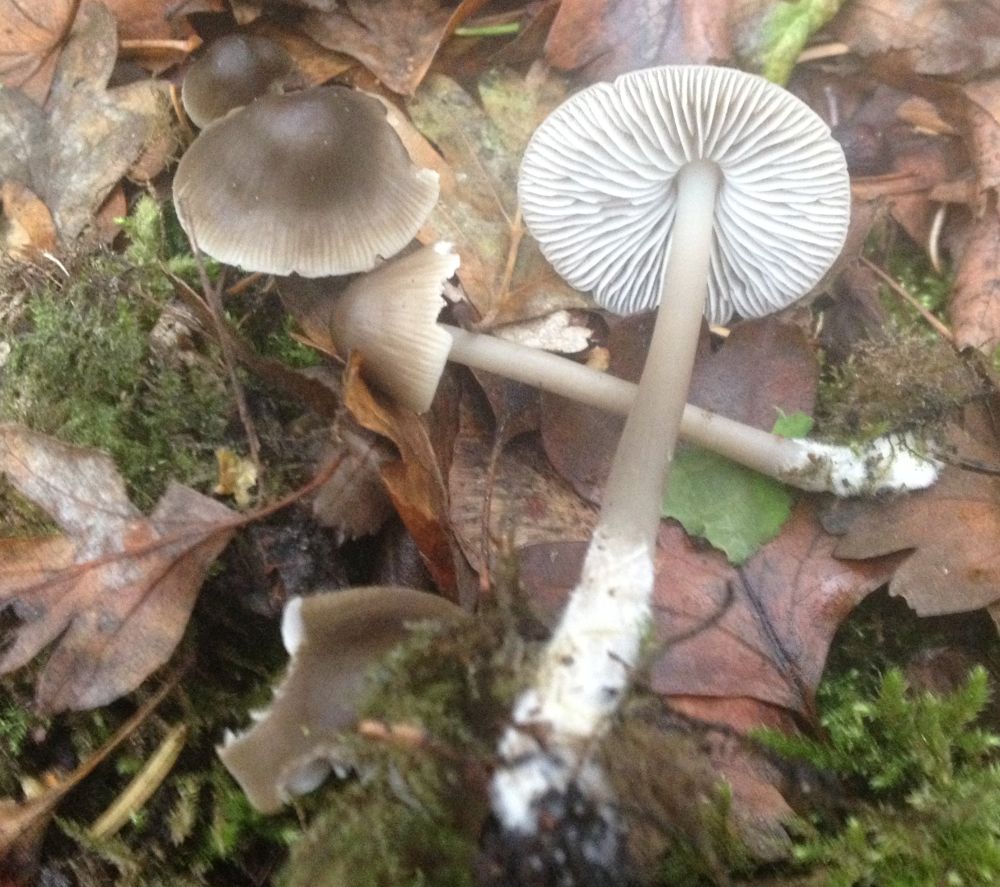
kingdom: Fungi
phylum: Basidiomycota
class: Agaricomycetes
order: Agaricales
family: Mycenaceae
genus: Mycena
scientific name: Mycena galericulata
